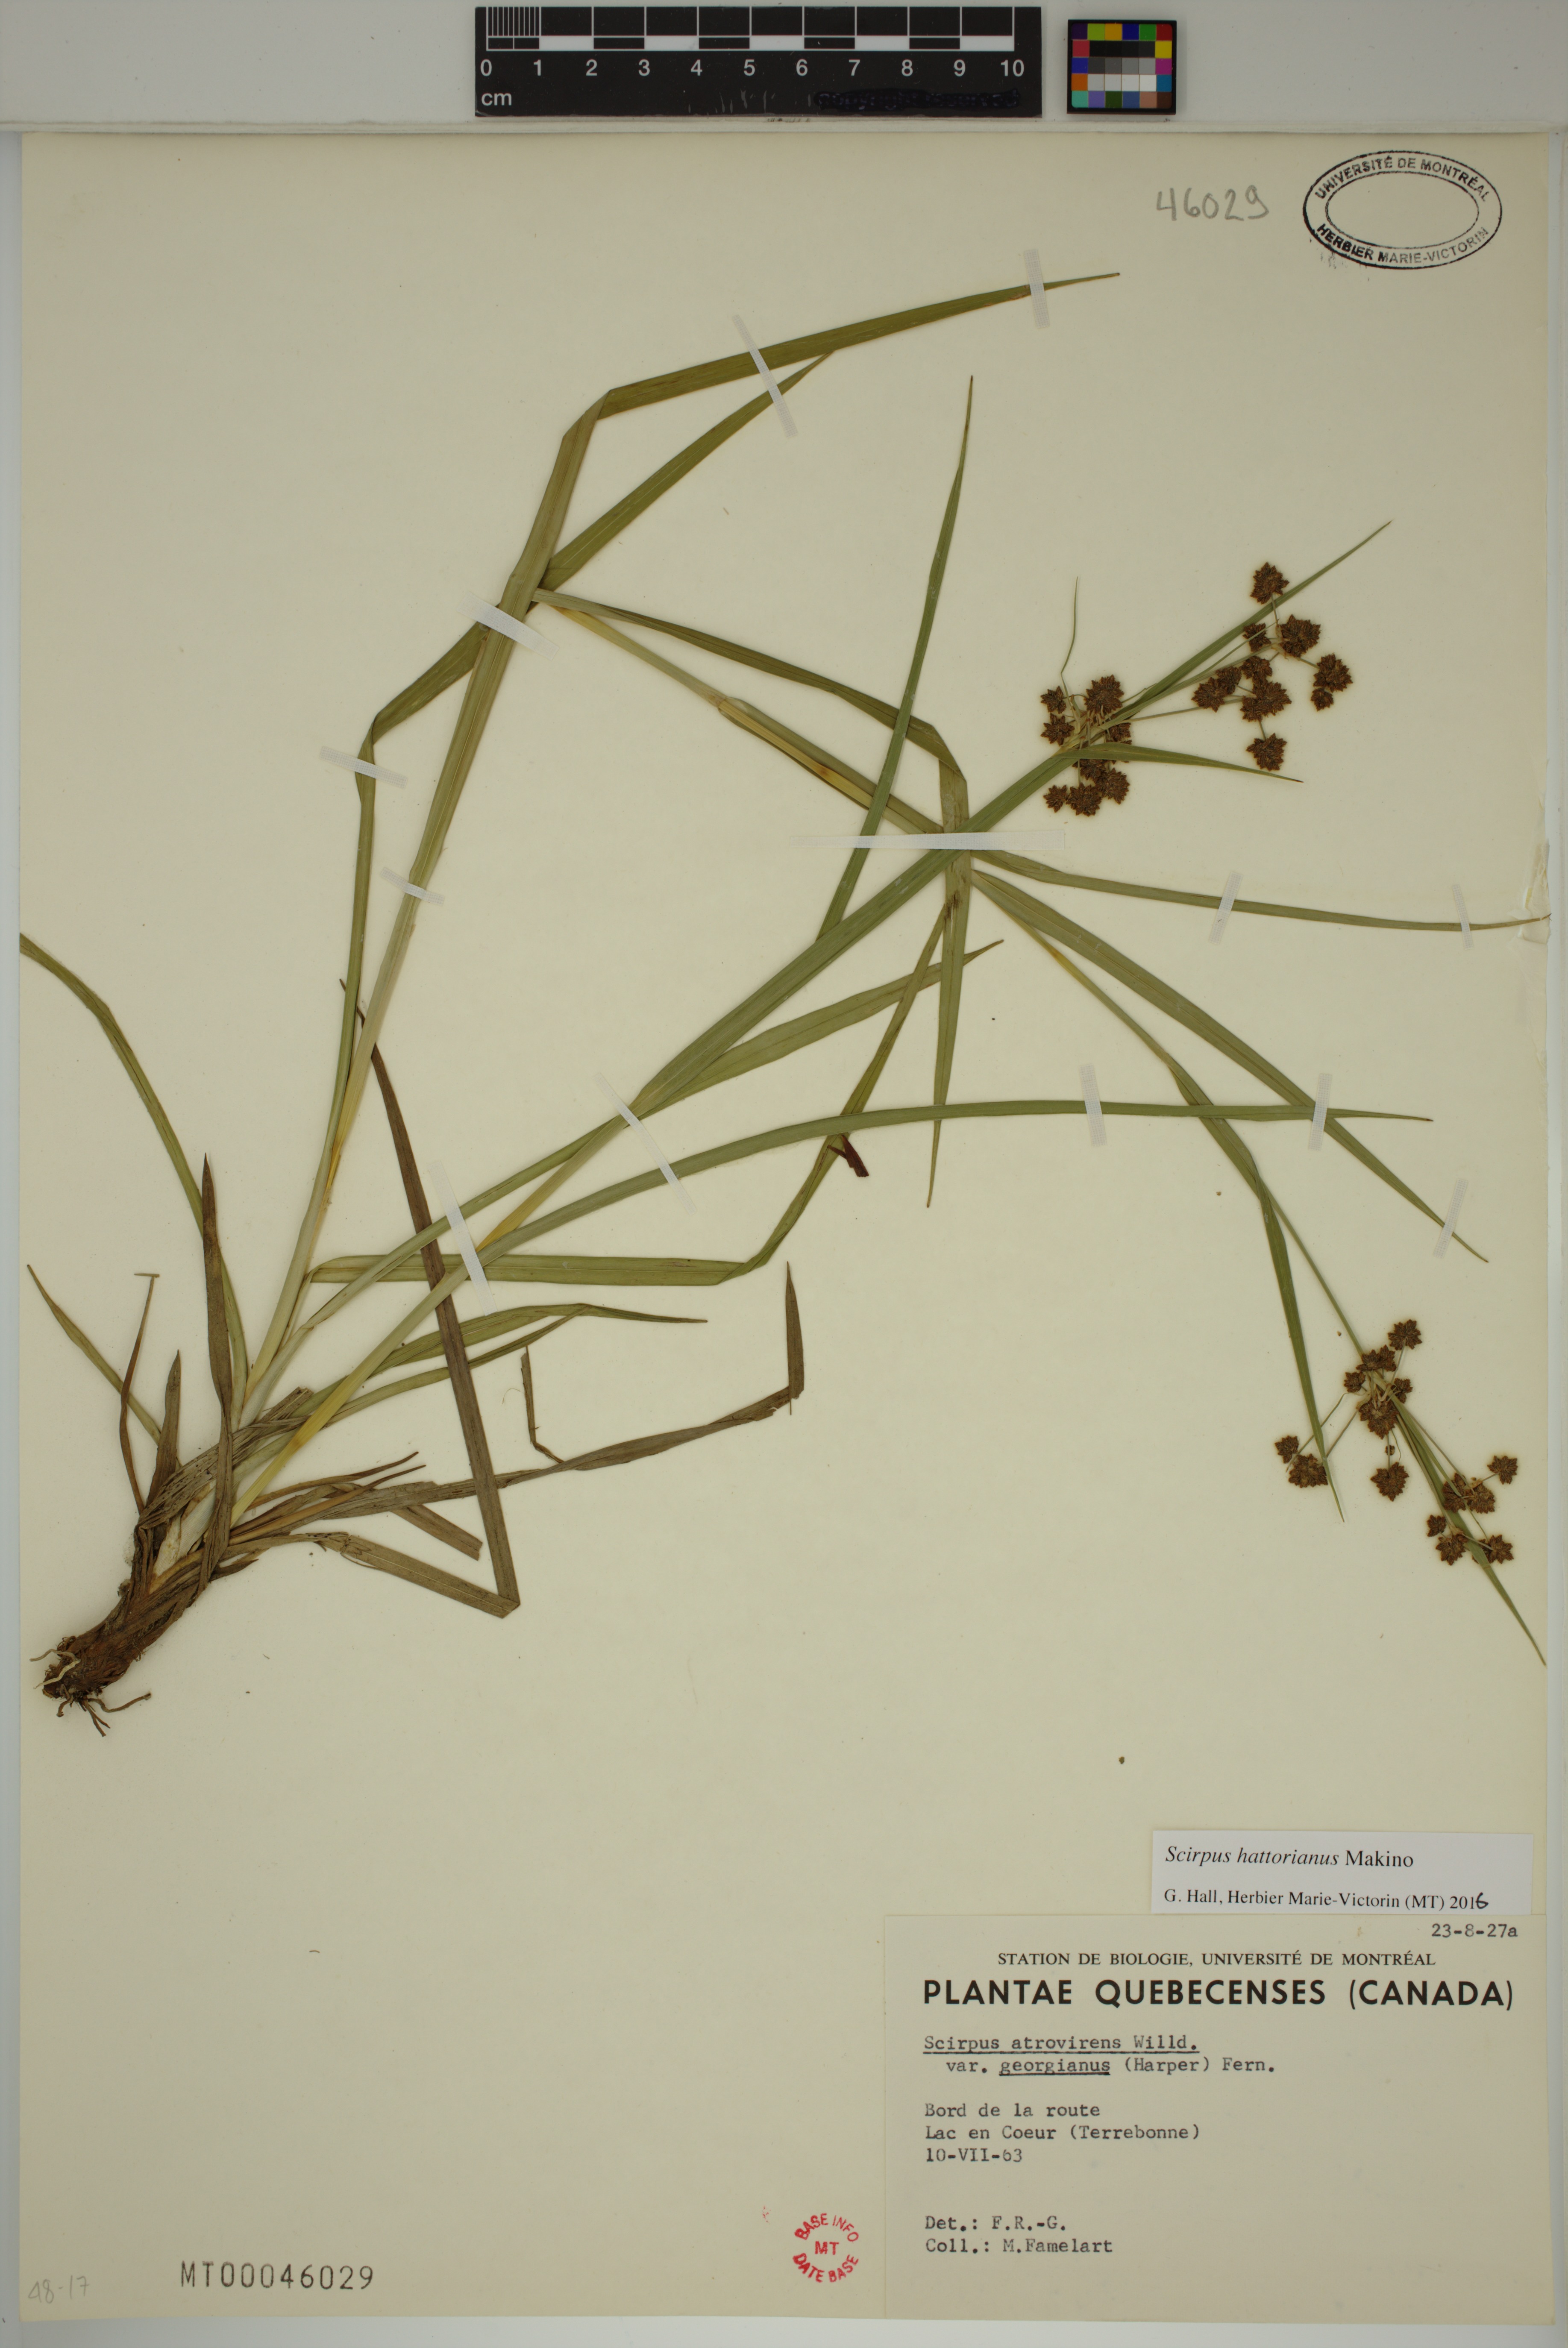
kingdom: Plantae
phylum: Tracheophyta
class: Liliopsida
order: Poales
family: Cyperaceae
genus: Scirpus
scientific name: Scirpus hattorianus
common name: Early dark-green bulrush
